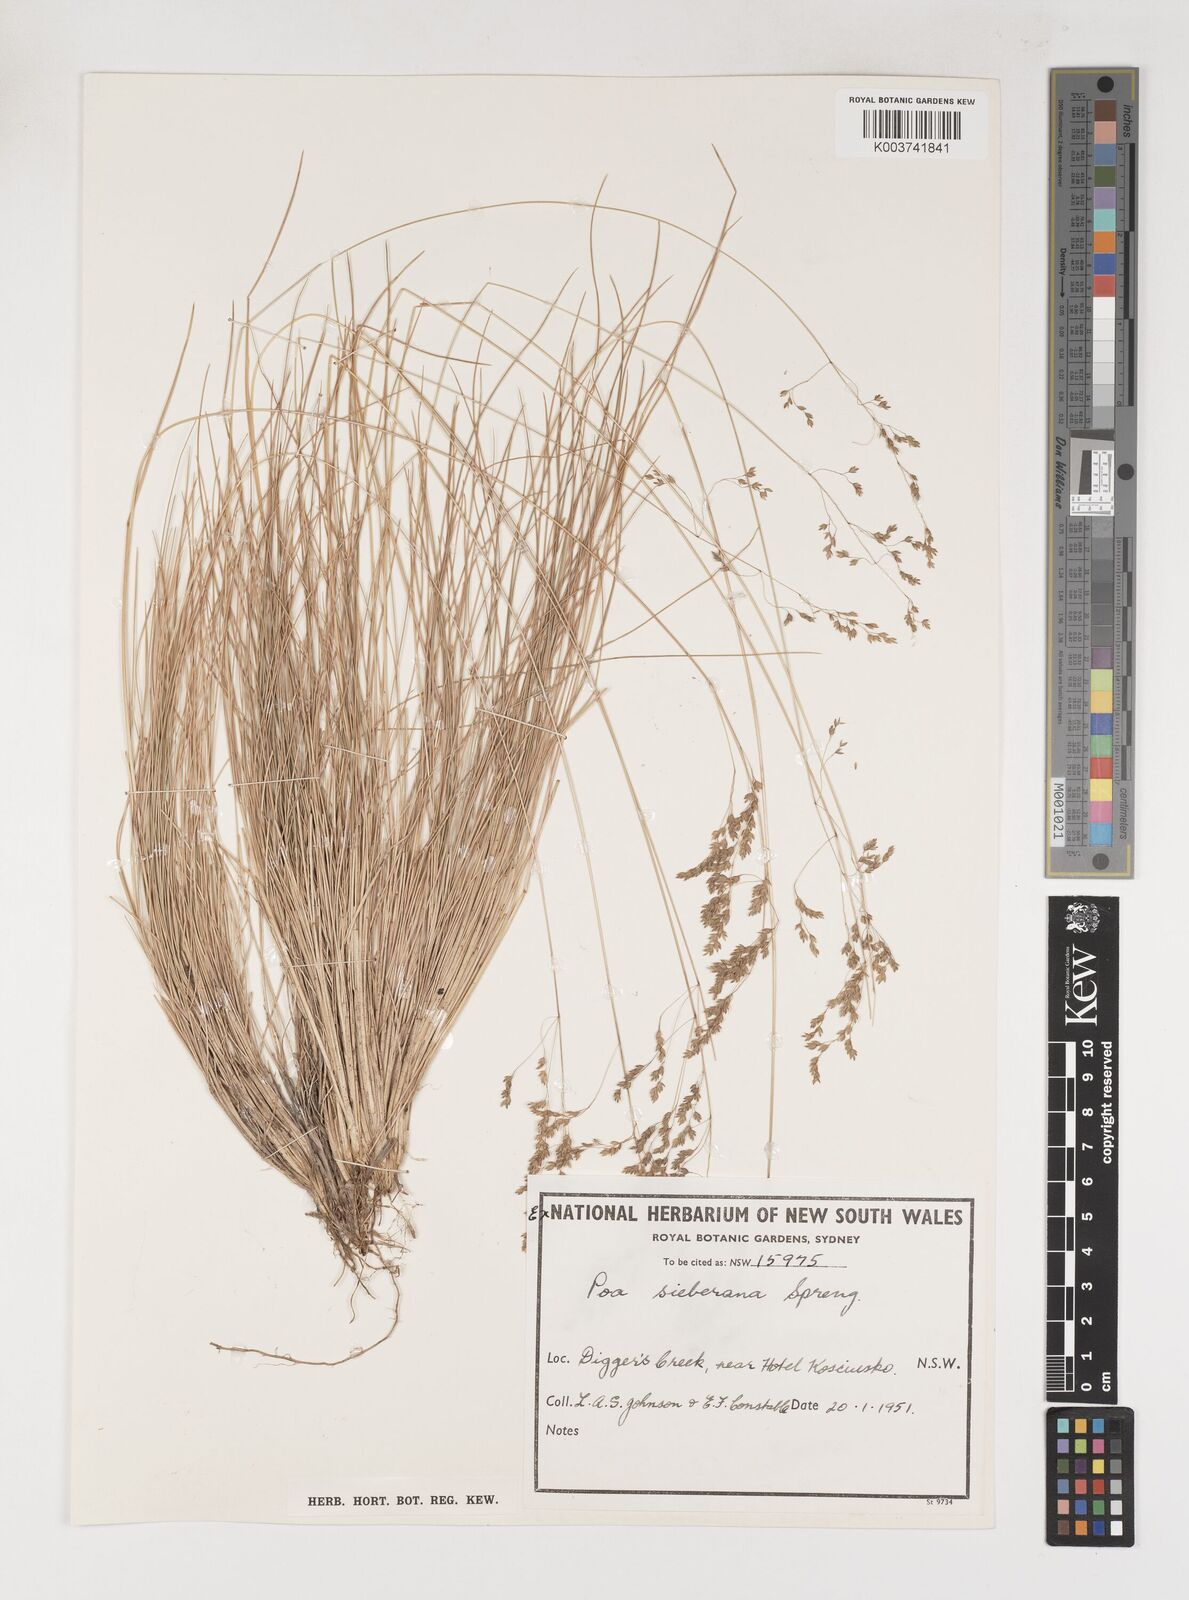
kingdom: Plantae
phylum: Tracheophyta
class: Liliopsida
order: Poales
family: Poaceae
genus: Poa
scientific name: Poa sieberiana
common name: Tussock poa
